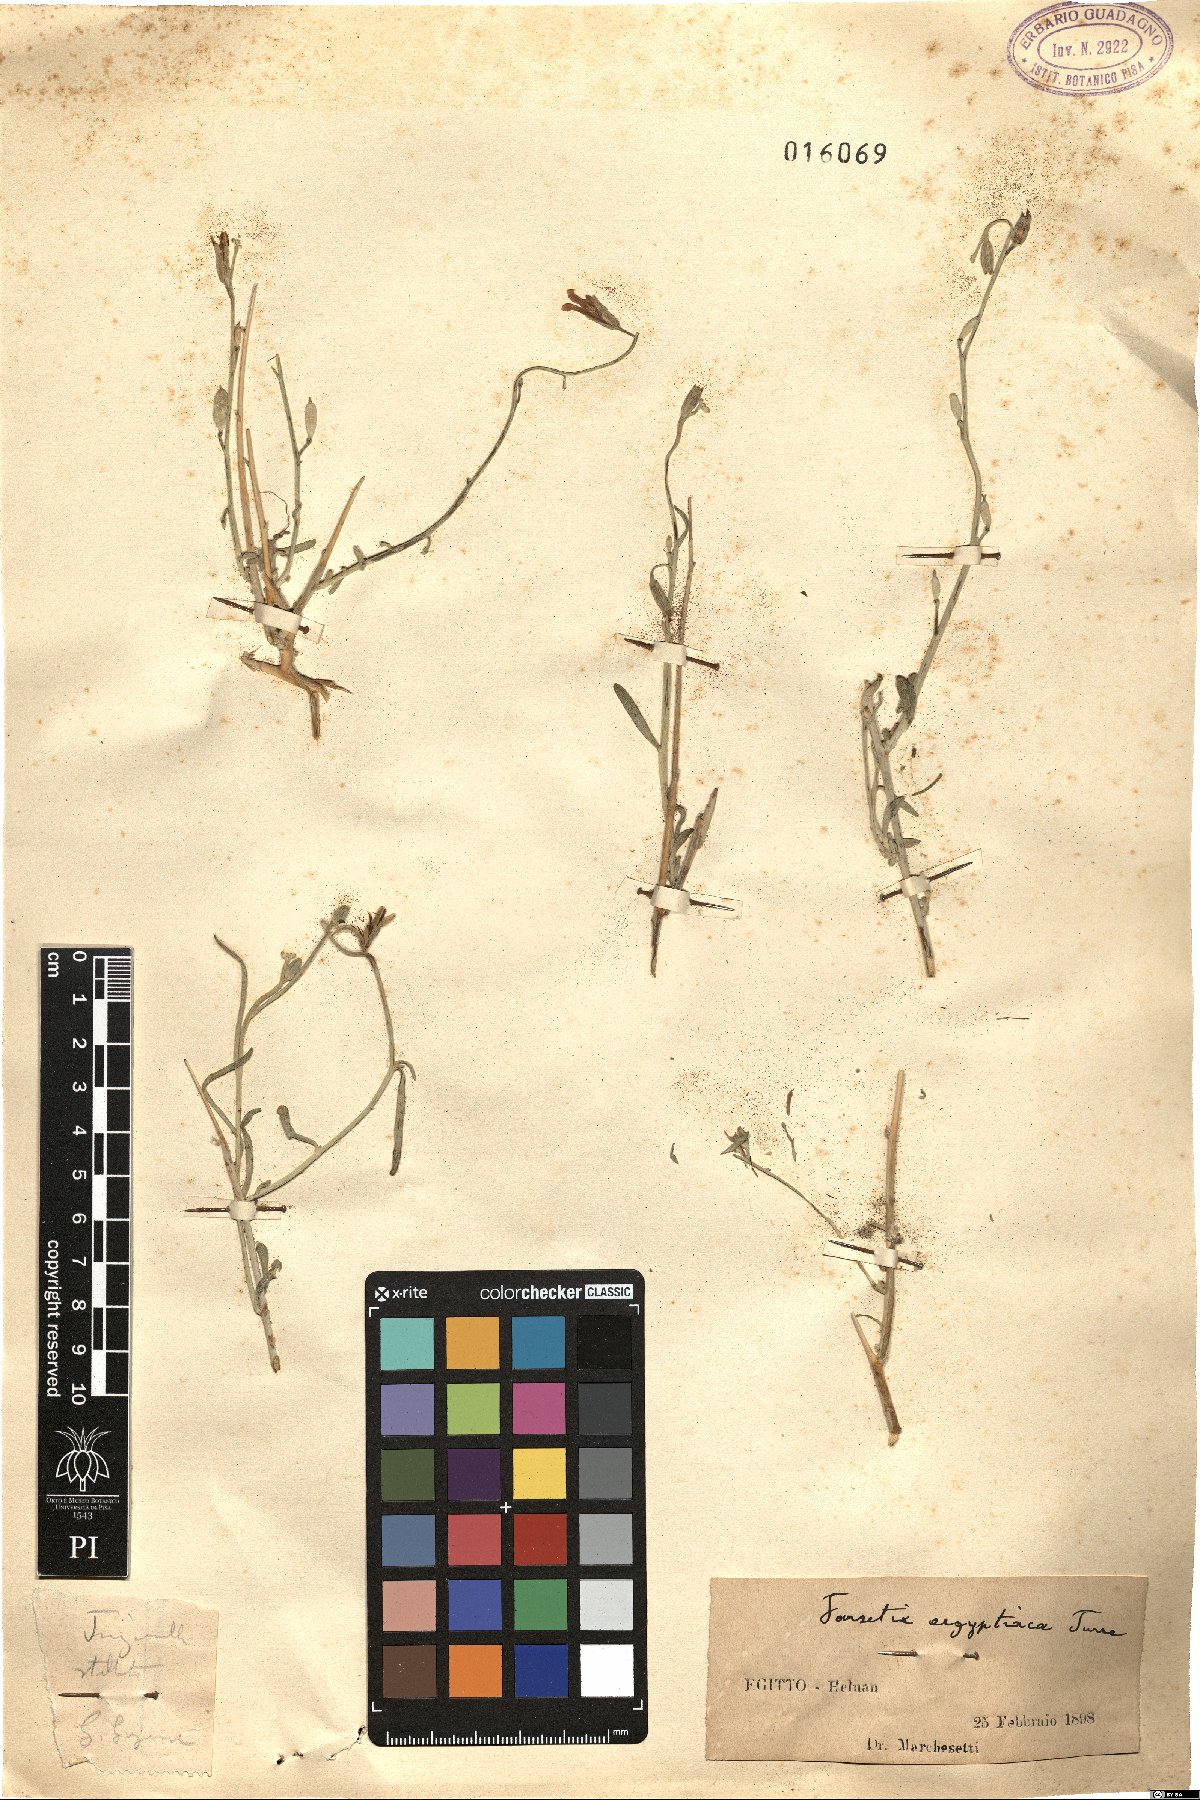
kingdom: Plantae
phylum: Tracheophyta
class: Magnoliopsida
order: Brassicales
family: Brassicaceae
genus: Farsetia
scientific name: Farsetia aegyptia
